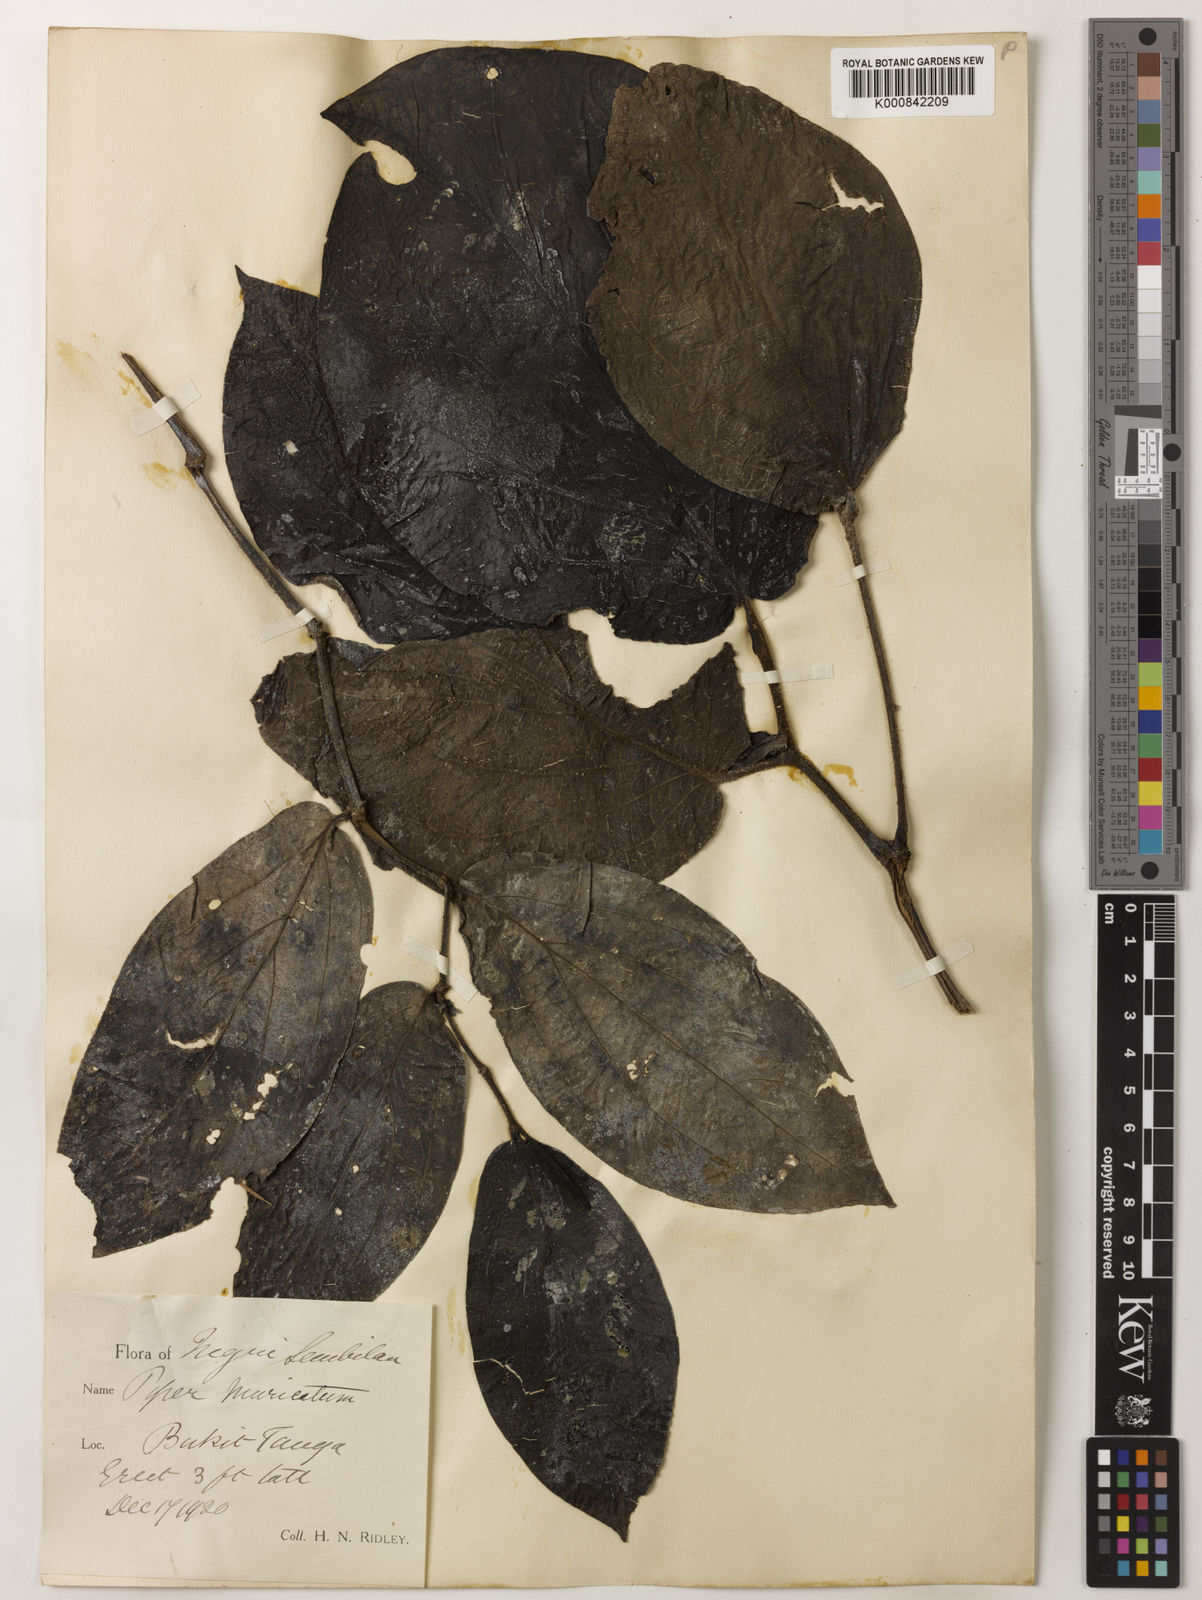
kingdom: Plantae
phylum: Tracheophyta
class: Magnoliopsida
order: Piperales
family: Piperaceae
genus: Piper
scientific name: Piper muricatum
